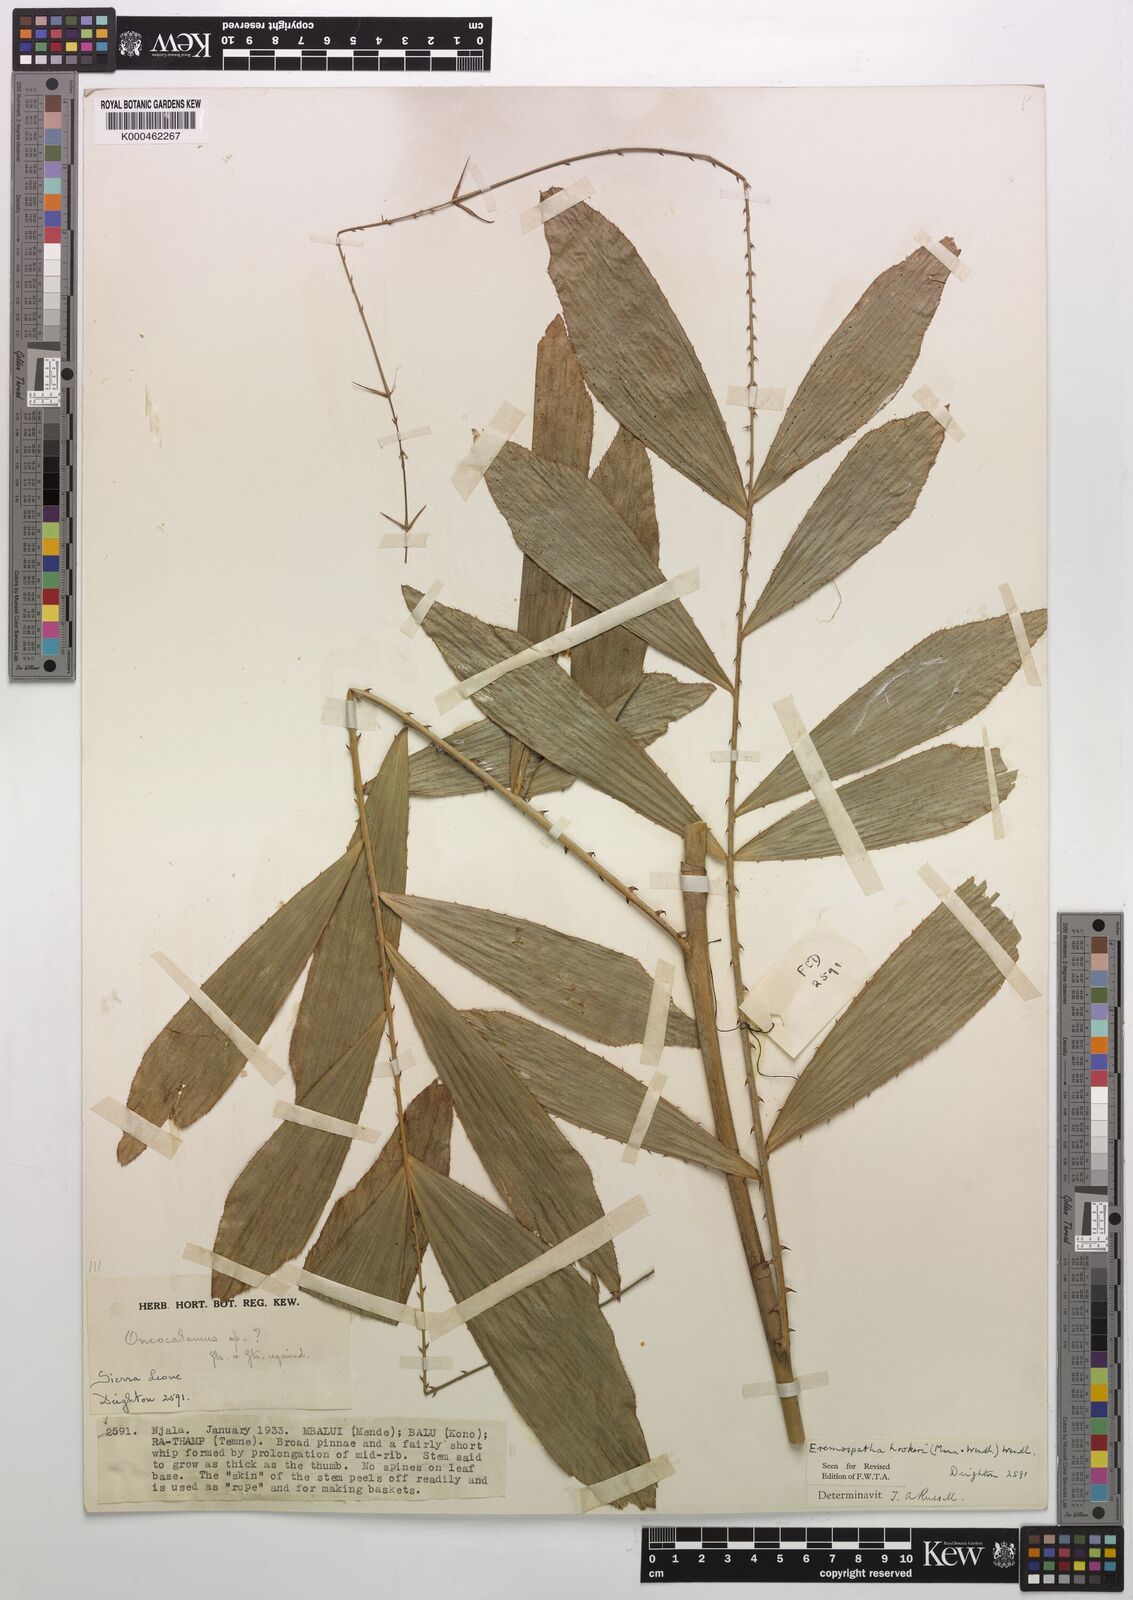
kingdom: Plantae
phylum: Tracheophyta
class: Liliopsida
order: Arecales
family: Arecaceae
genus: Eremospatha
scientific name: Eremospatha hookeri
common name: Rattan
